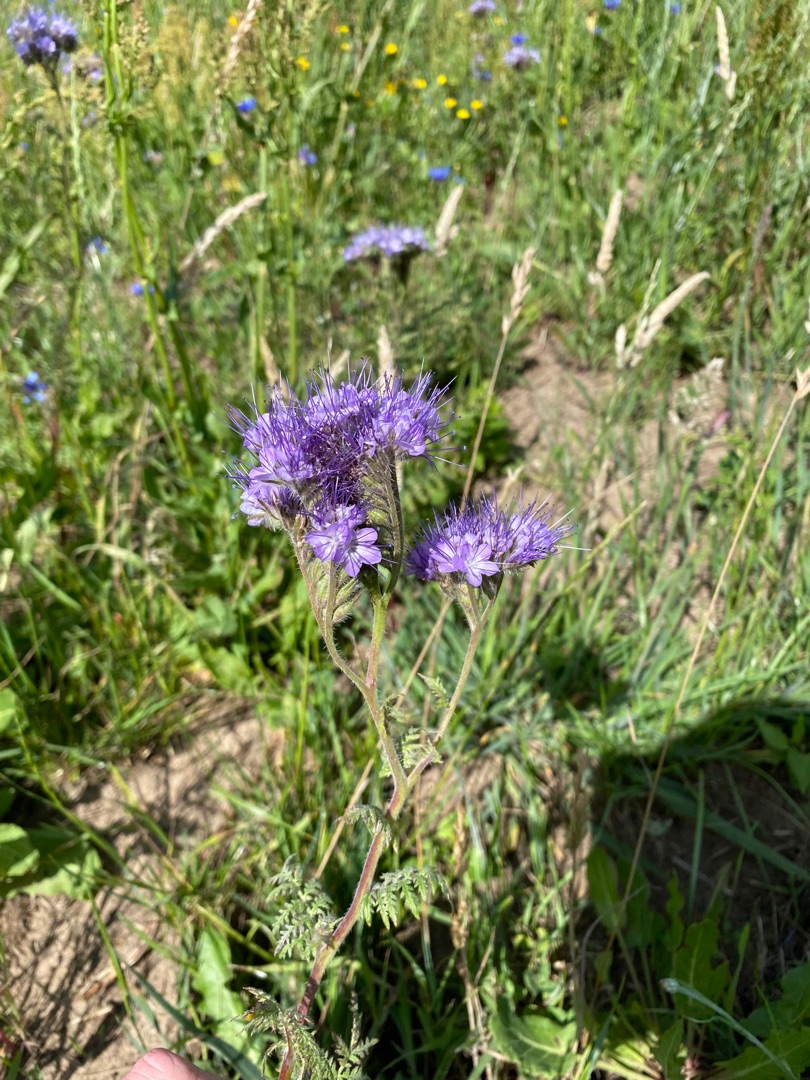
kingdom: Plantae
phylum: Tracheophyta
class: Magnoliopsida
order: Boraginales
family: Hydrophyllaceae
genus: Phacelia
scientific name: Phacelia tanacetifolia
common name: Honningurt
